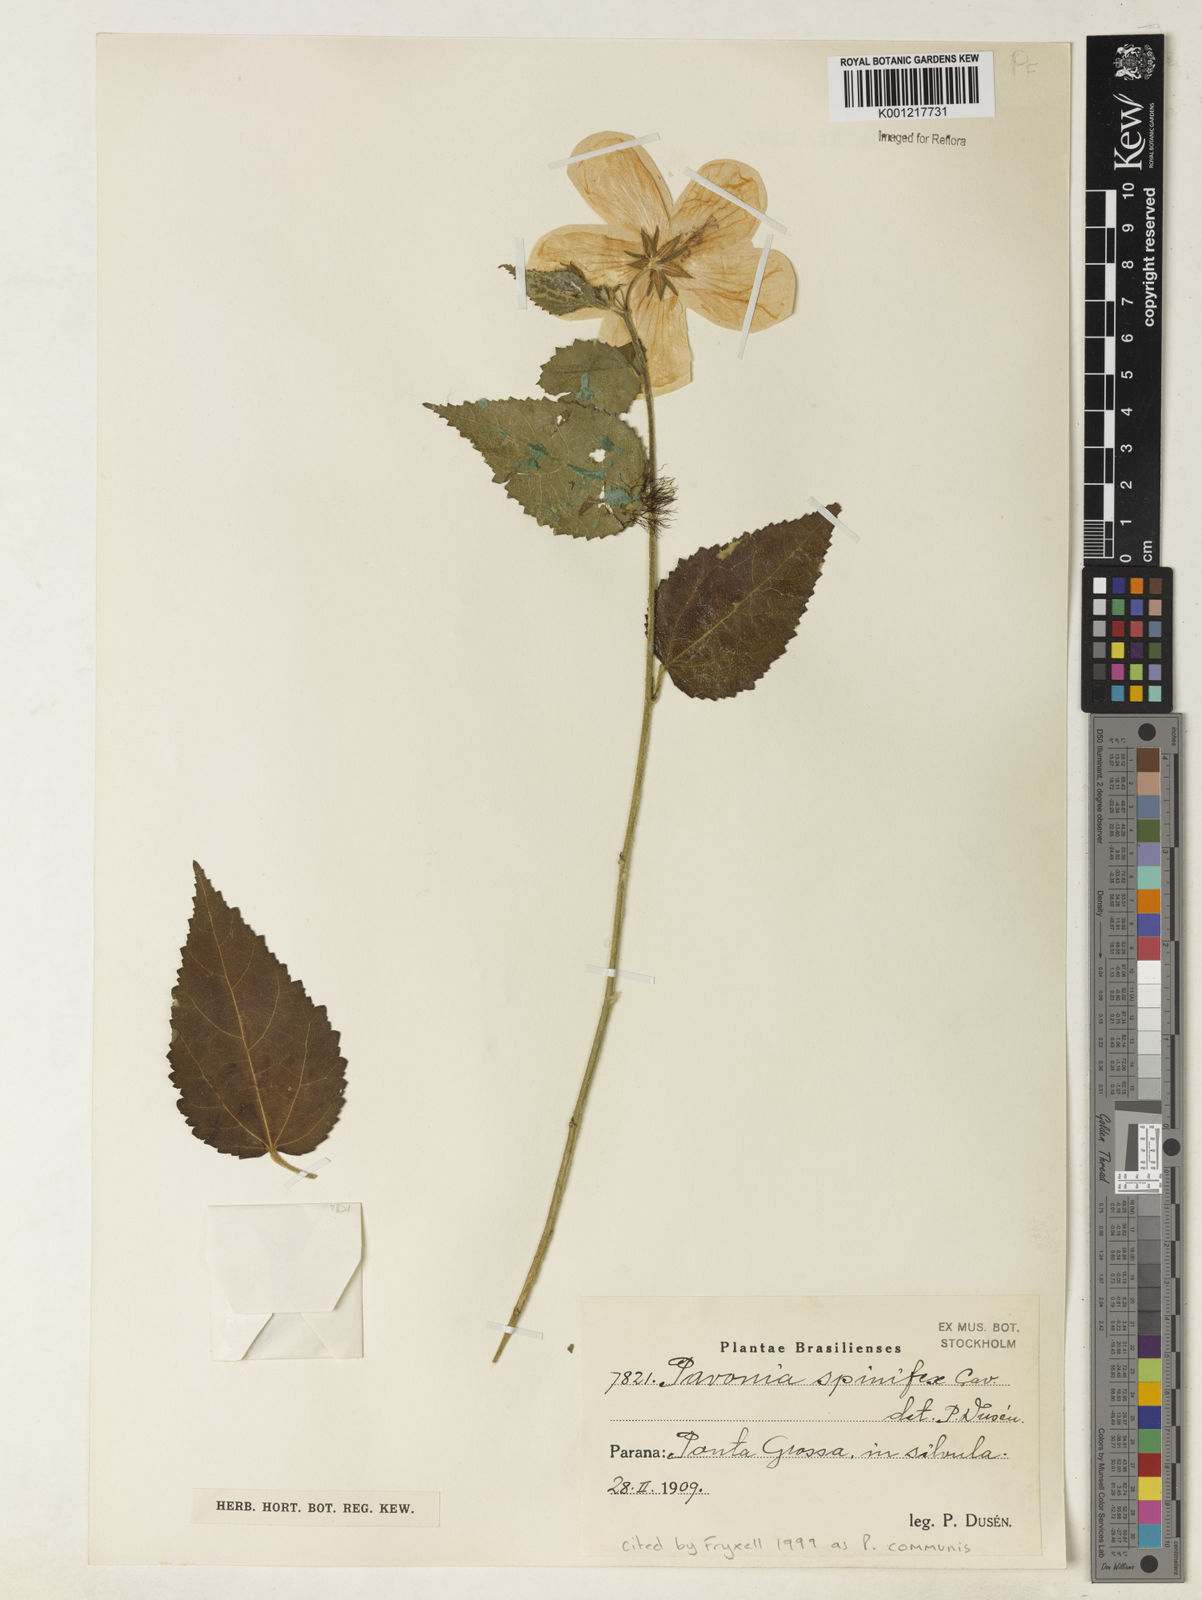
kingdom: Plantae
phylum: Tracheophyta
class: Magnoliopsida
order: Malvales
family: Malvaceae
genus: Pavonia
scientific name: Pavonia spinifex
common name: Ginger bush
